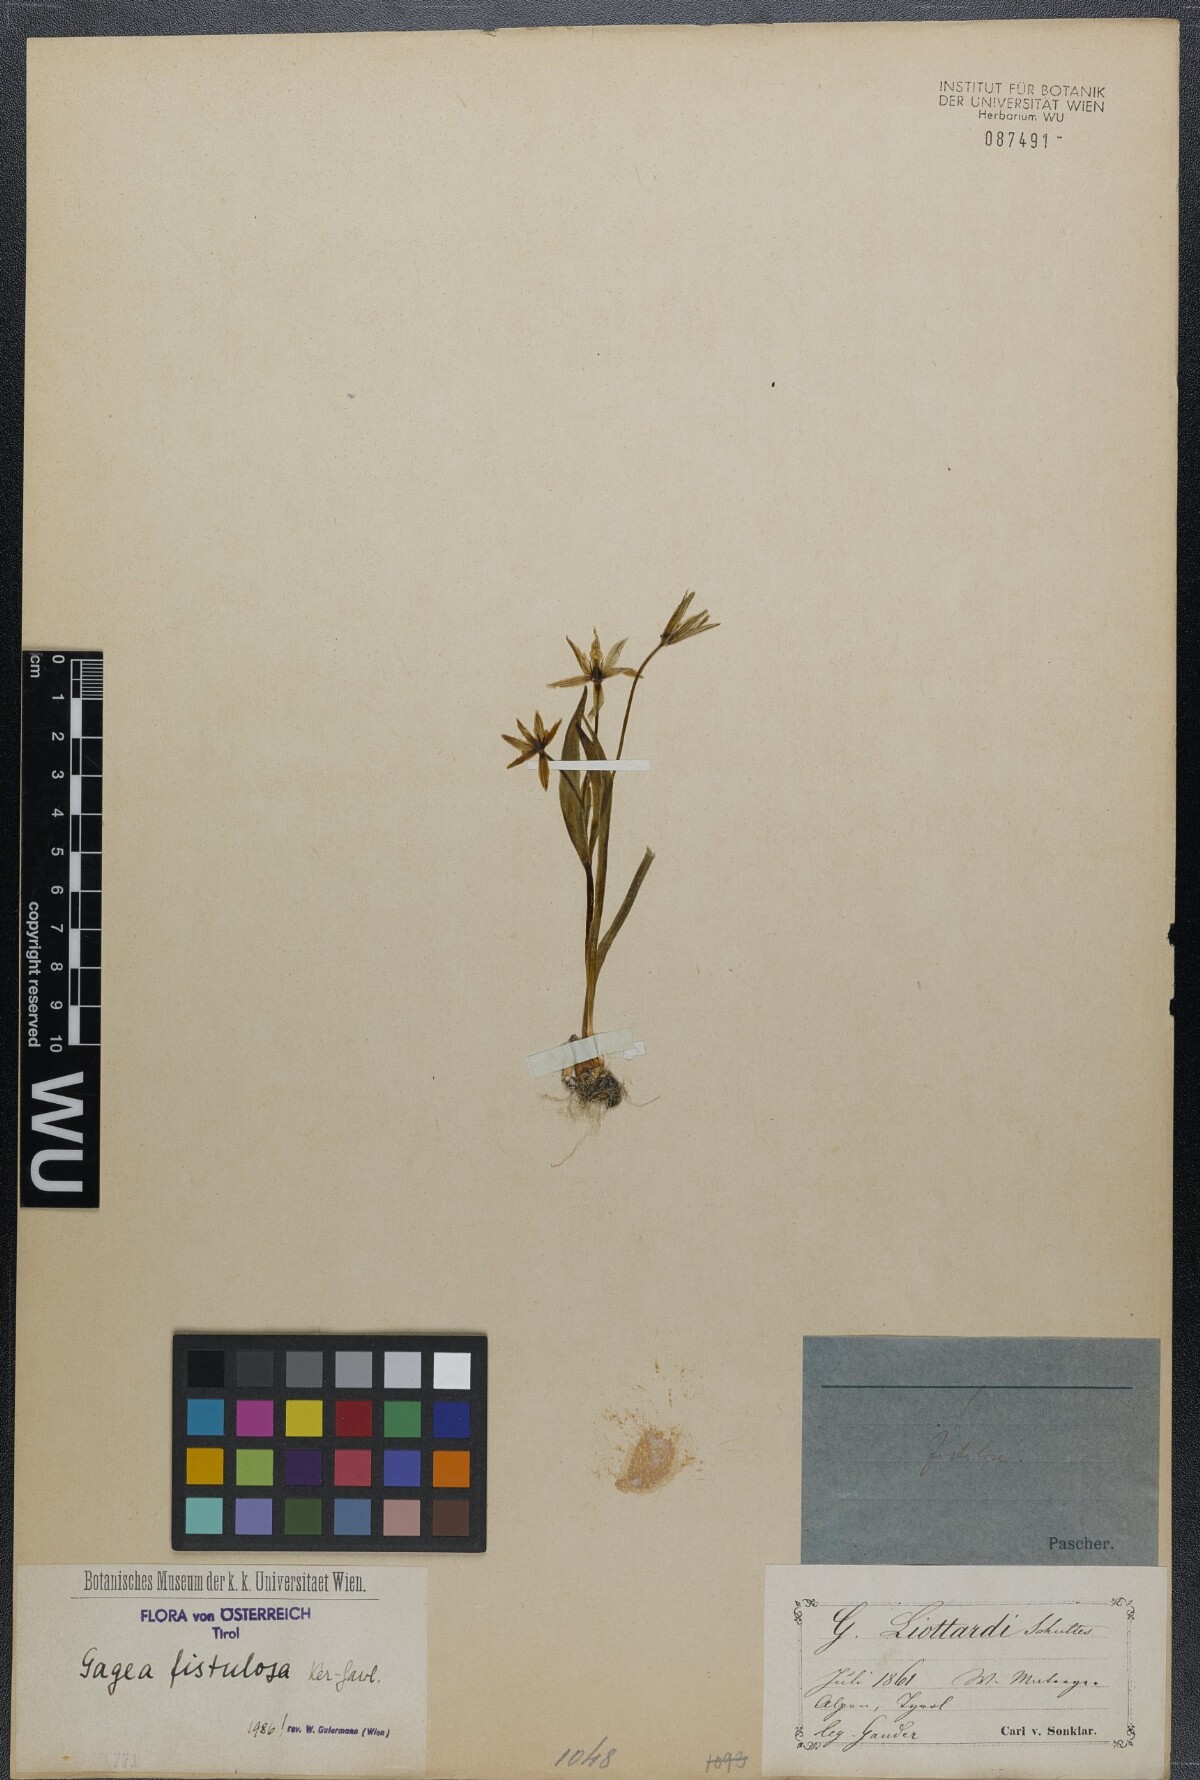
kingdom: Plantae
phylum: Tracheophyta
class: Liliopsida
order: Liliales
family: Liliaceae
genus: Gagea
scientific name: Gagea bohemica
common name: Early star-of-bethlehem
